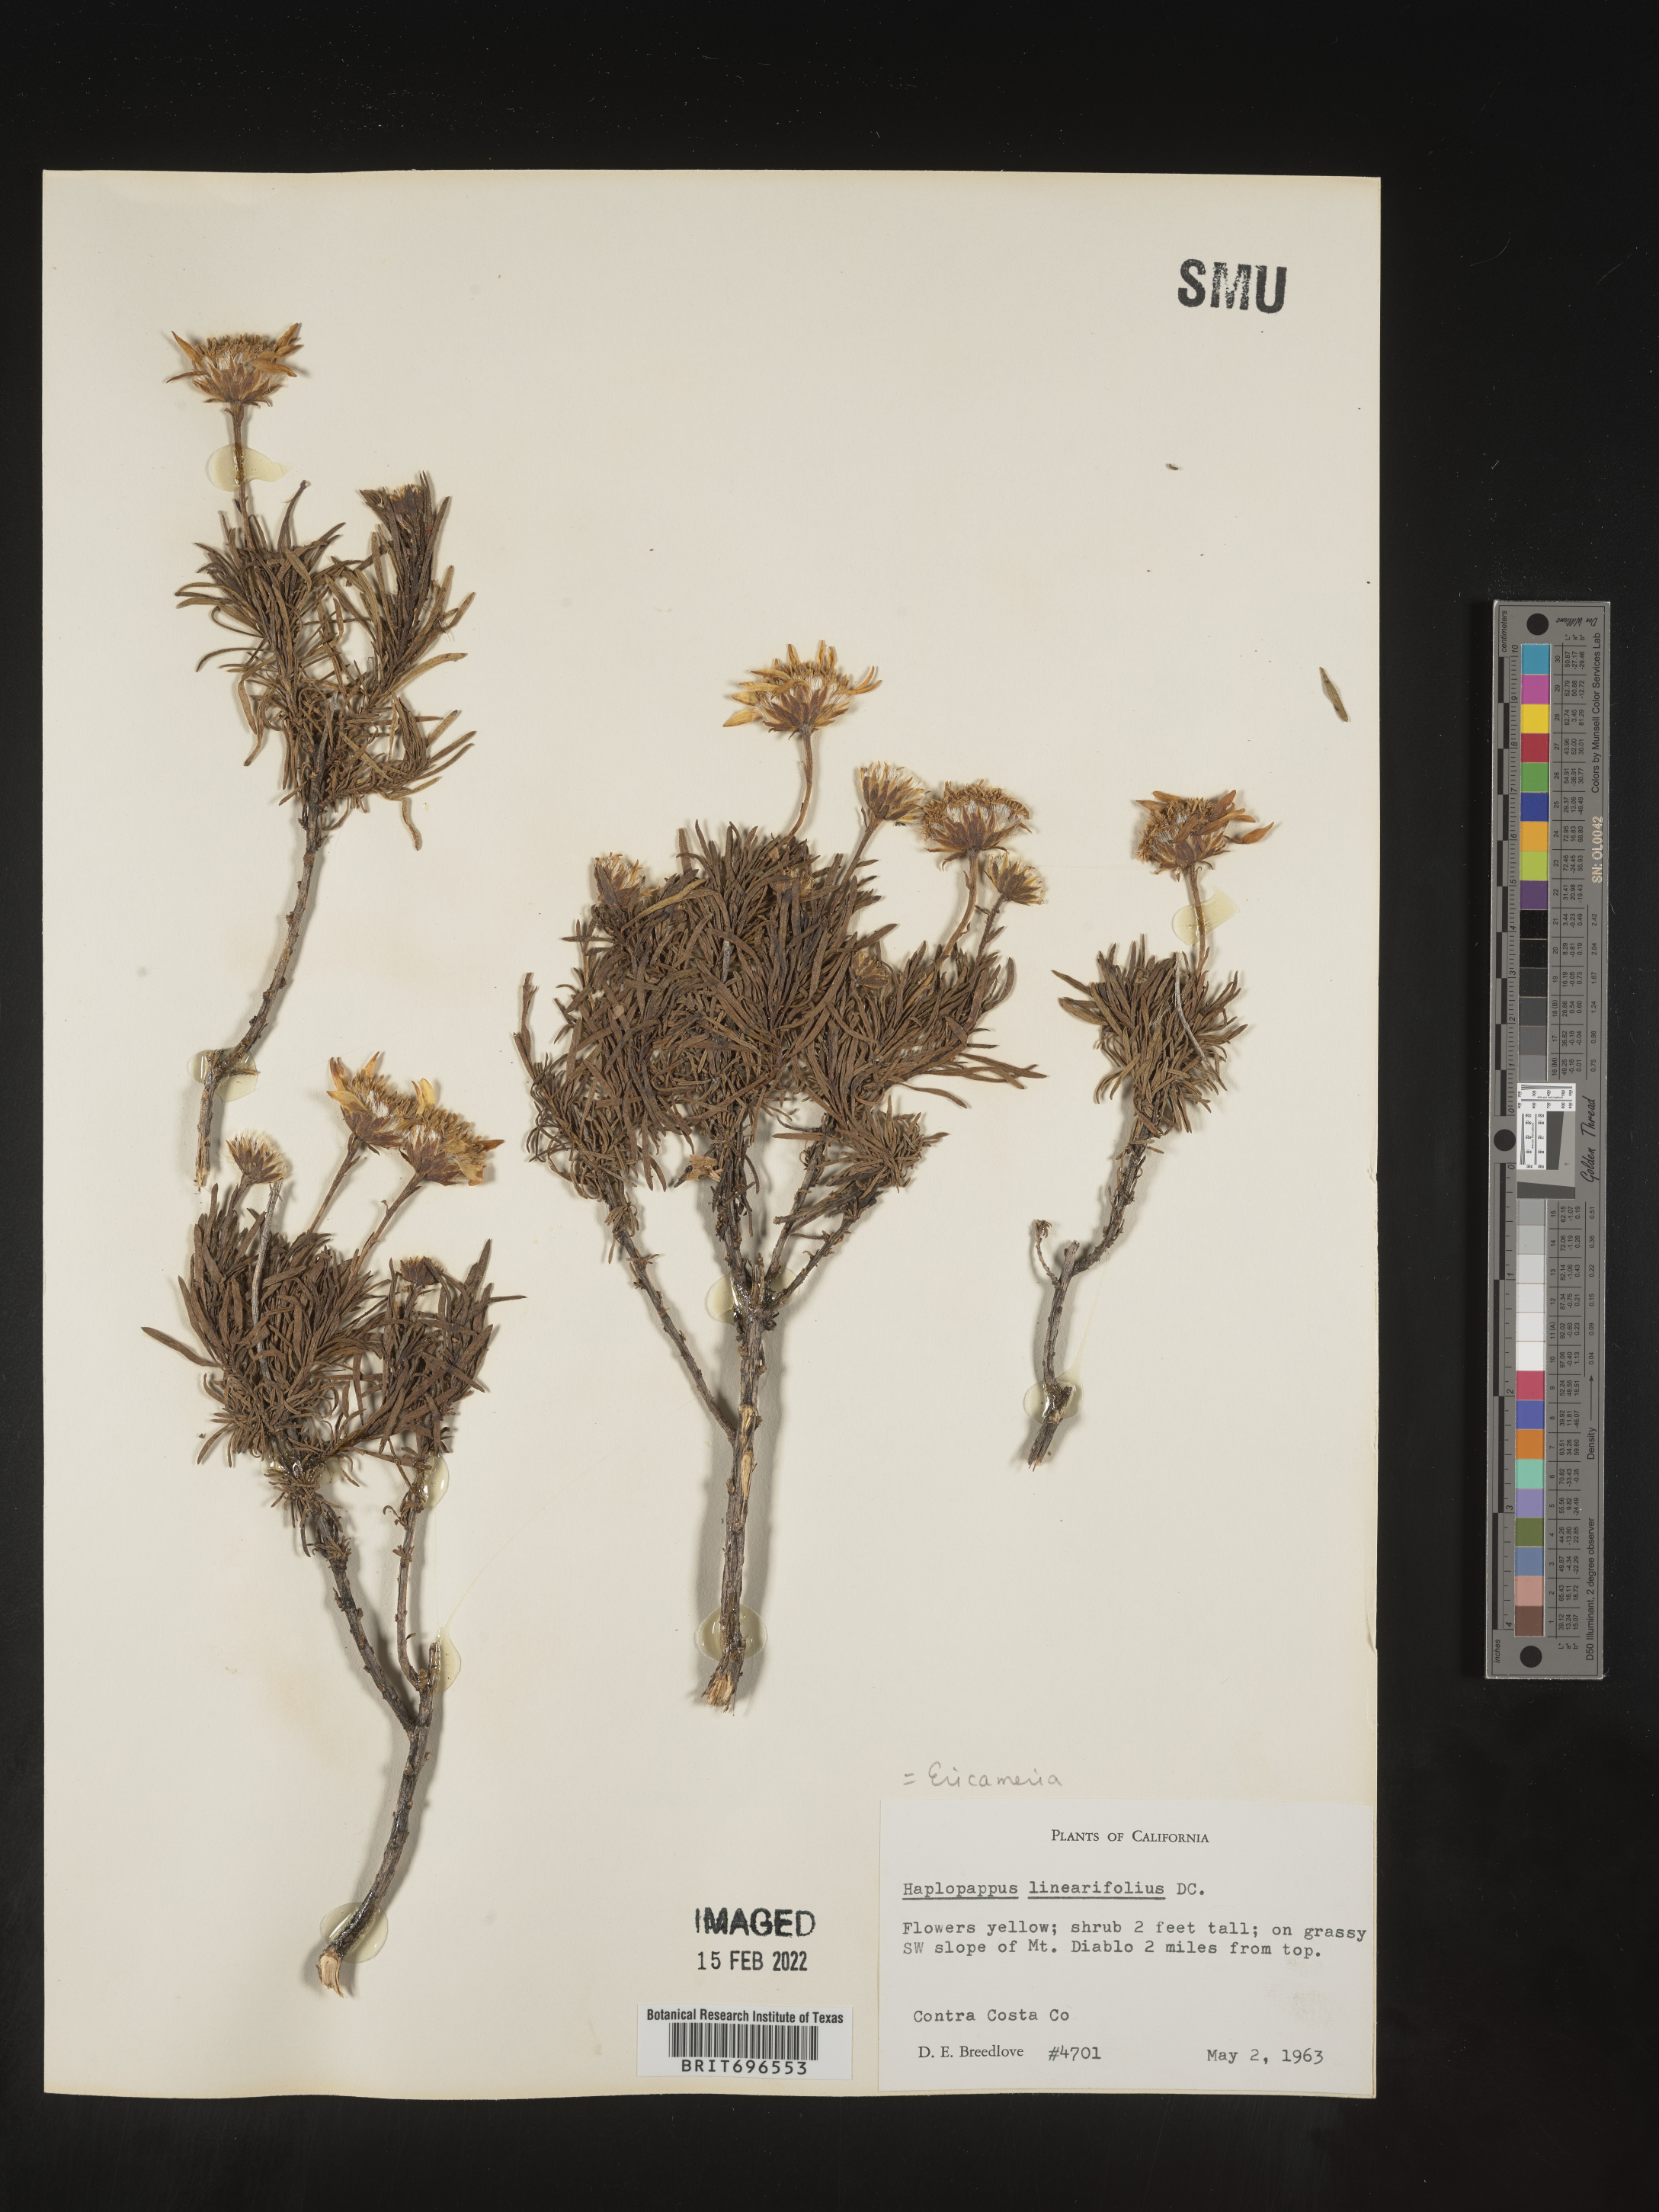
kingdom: Plantae
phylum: Tracheophyta
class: Magnoliopsida
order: Asterales
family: Asteraceae
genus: Ericameria
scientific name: Ericameria linearifolia
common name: Interior goldenbush
